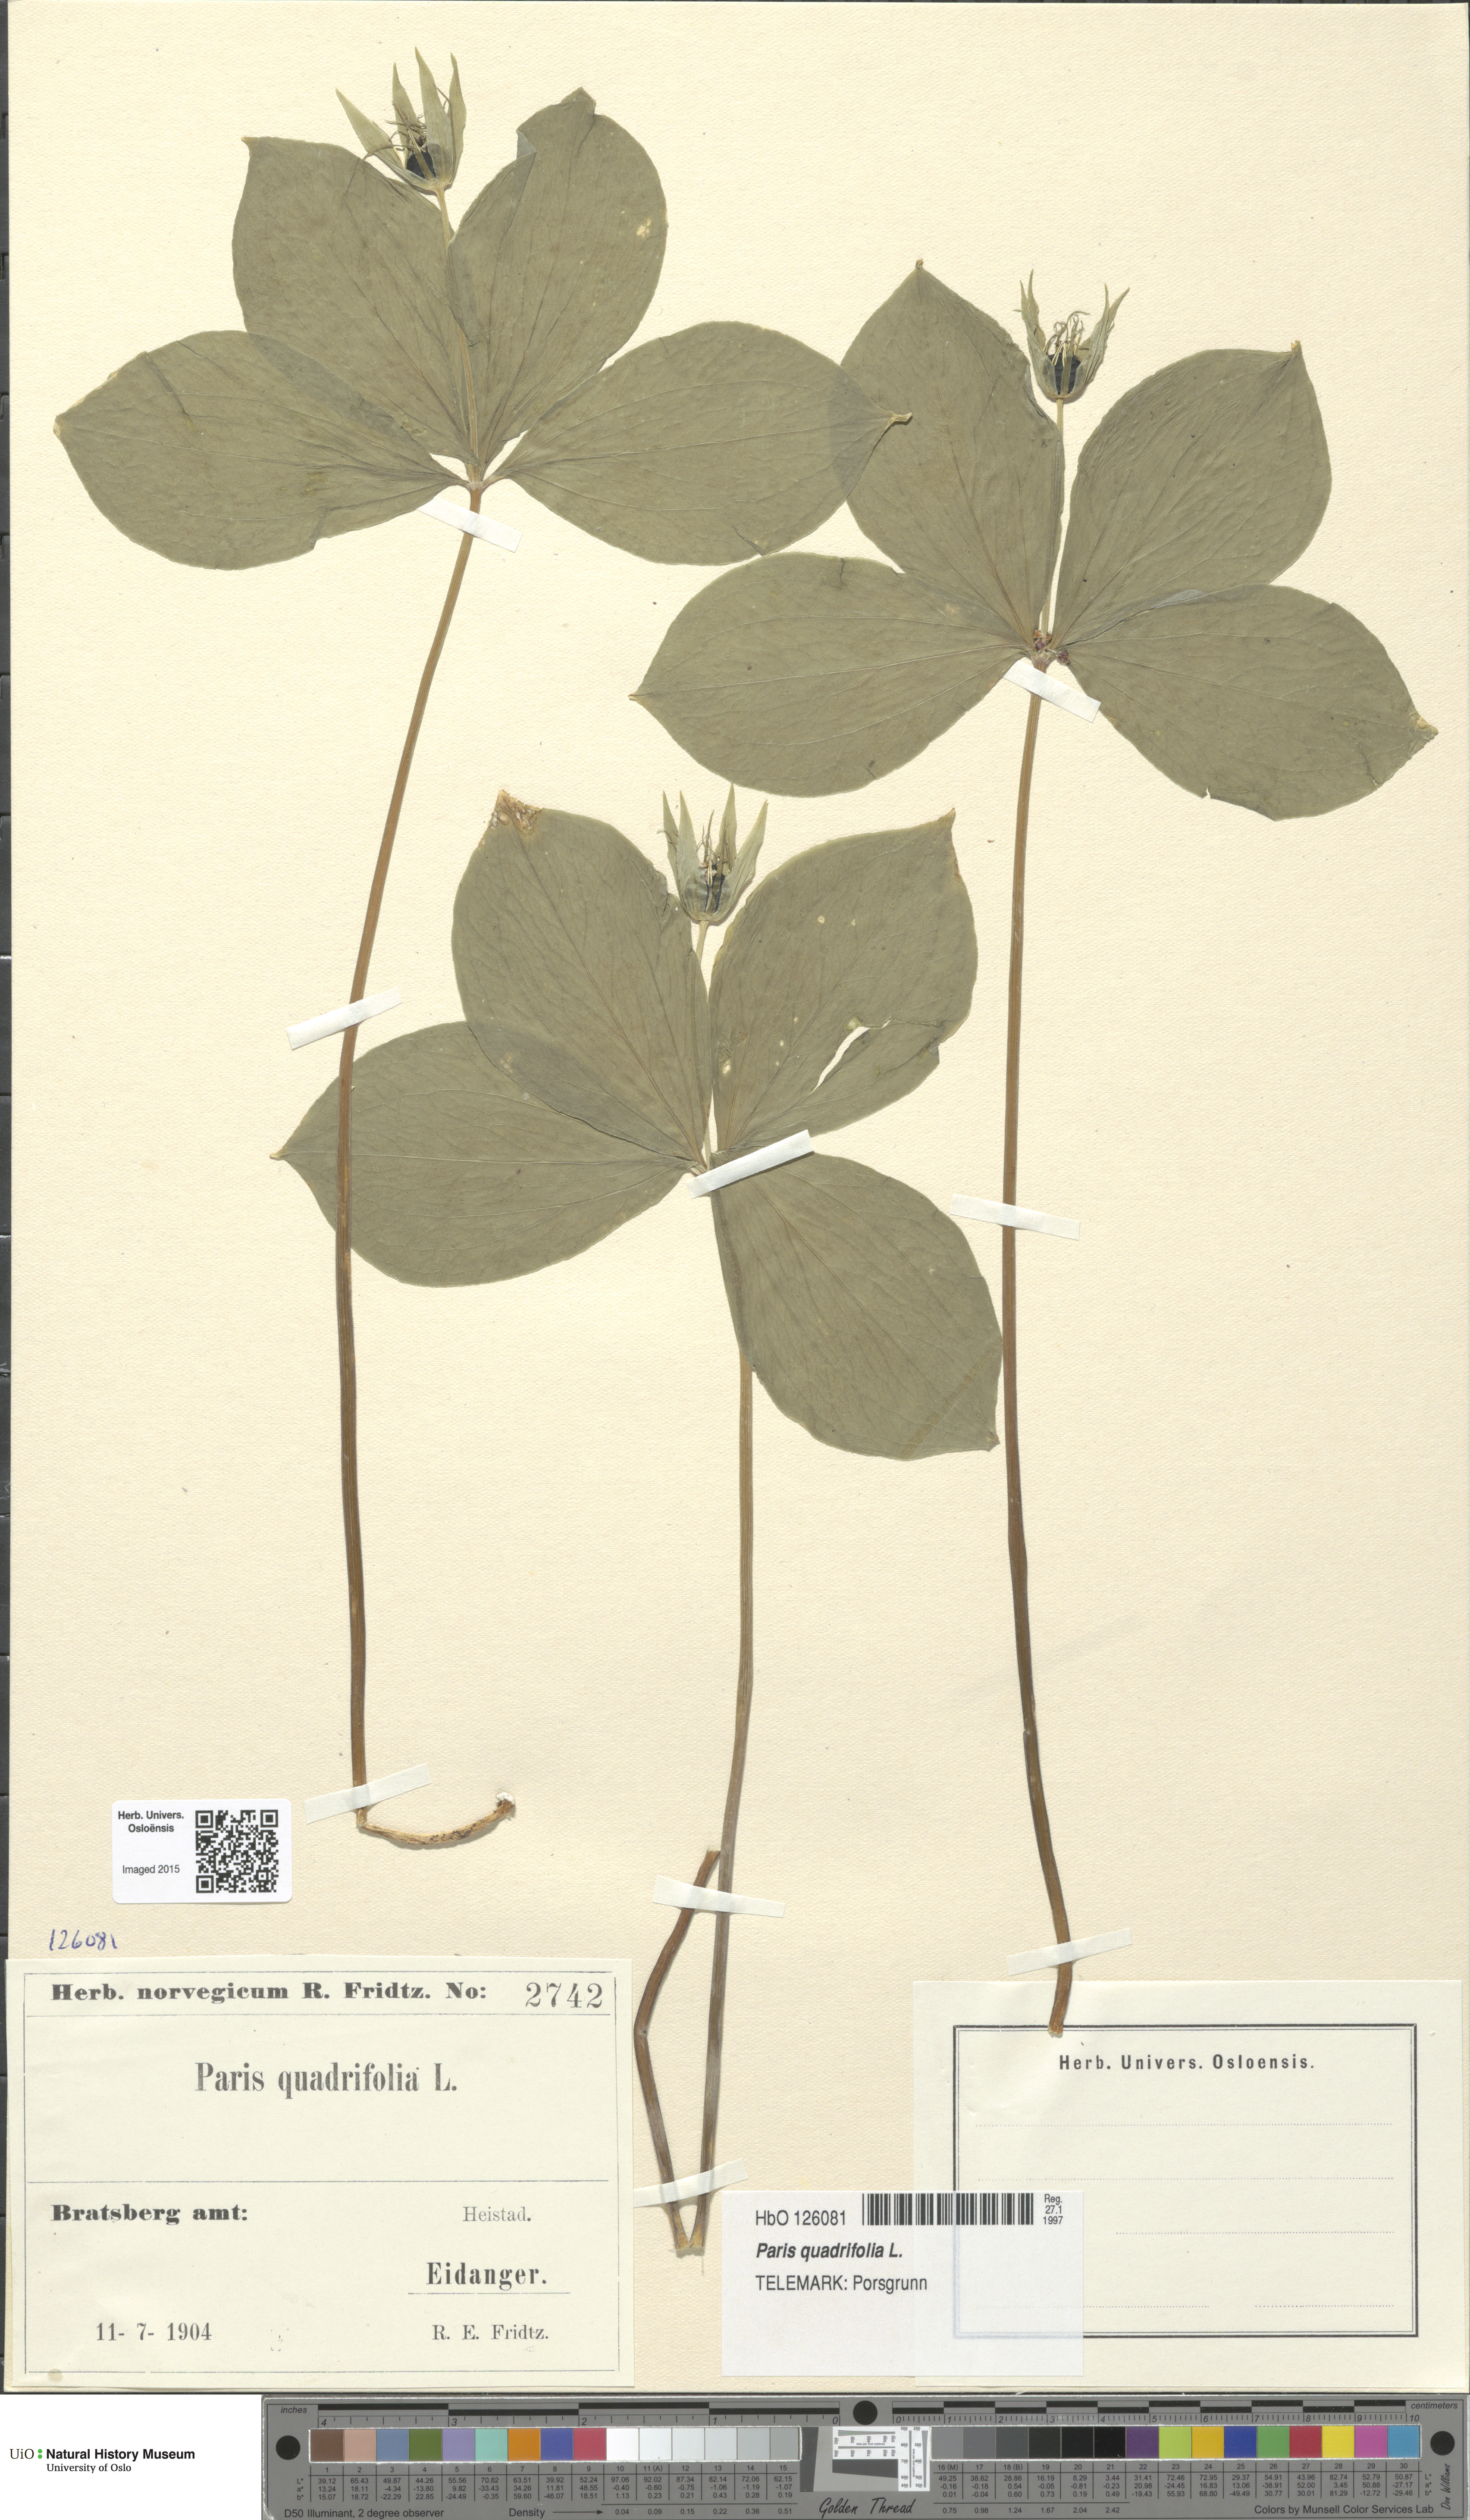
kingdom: Plantae
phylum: Tracheophyta
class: Liliopsida
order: Liliales
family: Melanthiaceae
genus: Paris
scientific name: Paris quadrifolia
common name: Herb-paris
